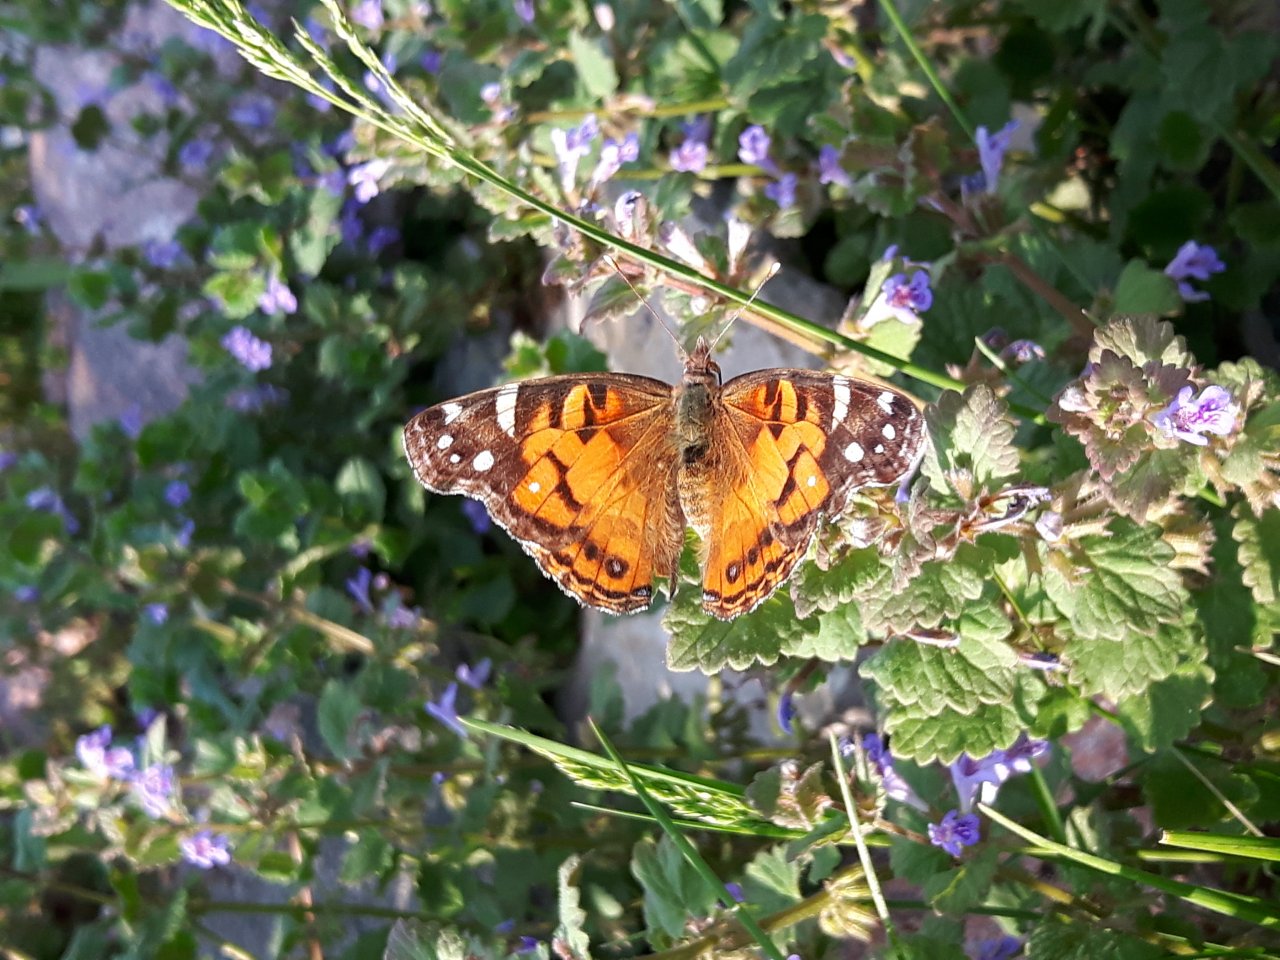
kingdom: Animalia
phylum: Arthropoda
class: Insecta
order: Lepidoptera
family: Nymphalidae
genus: Vanessa
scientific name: Vanessa virginiensis
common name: American Lady
